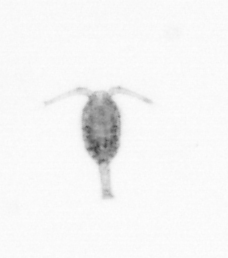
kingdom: Animalia
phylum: Arthropoda
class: Copepoda
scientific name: Copepoda
